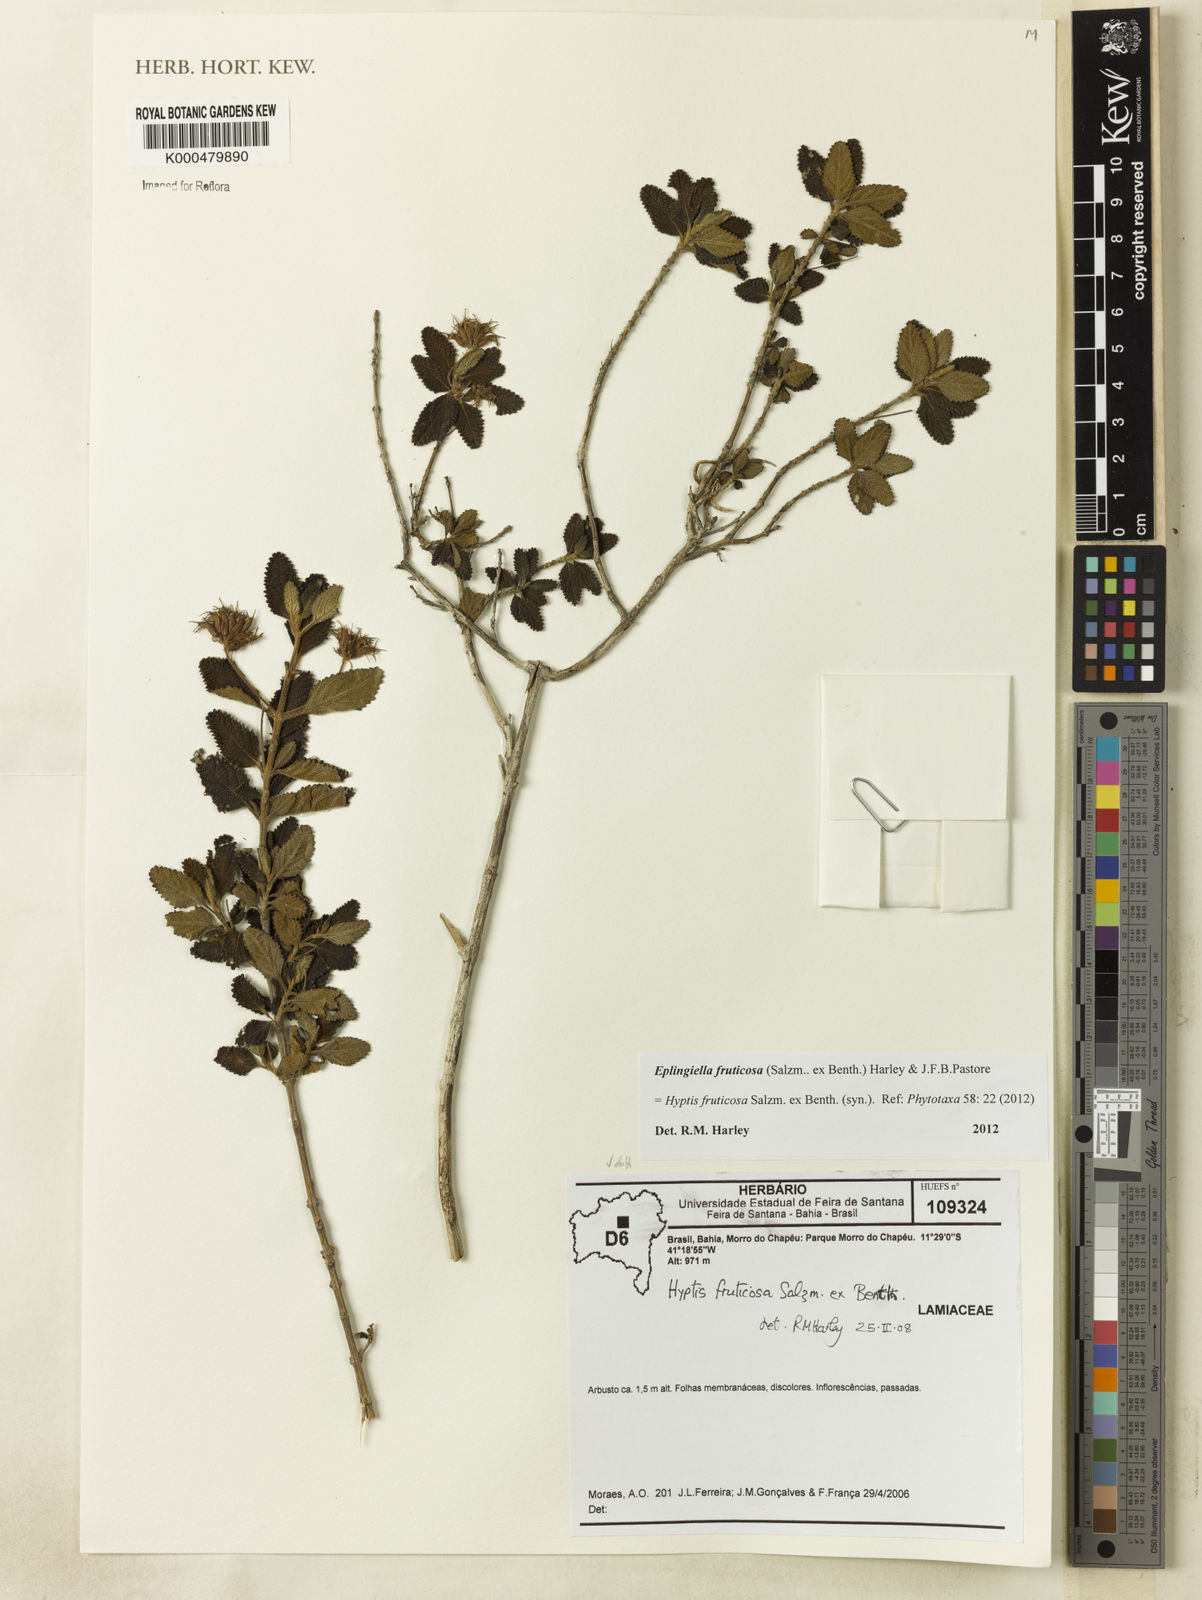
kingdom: Plantae
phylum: Tracheophyta
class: Magnoliopsida
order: Lamiales
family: Lamiaceae
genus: Eplingiella
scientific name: Eplingiella fruticosa
